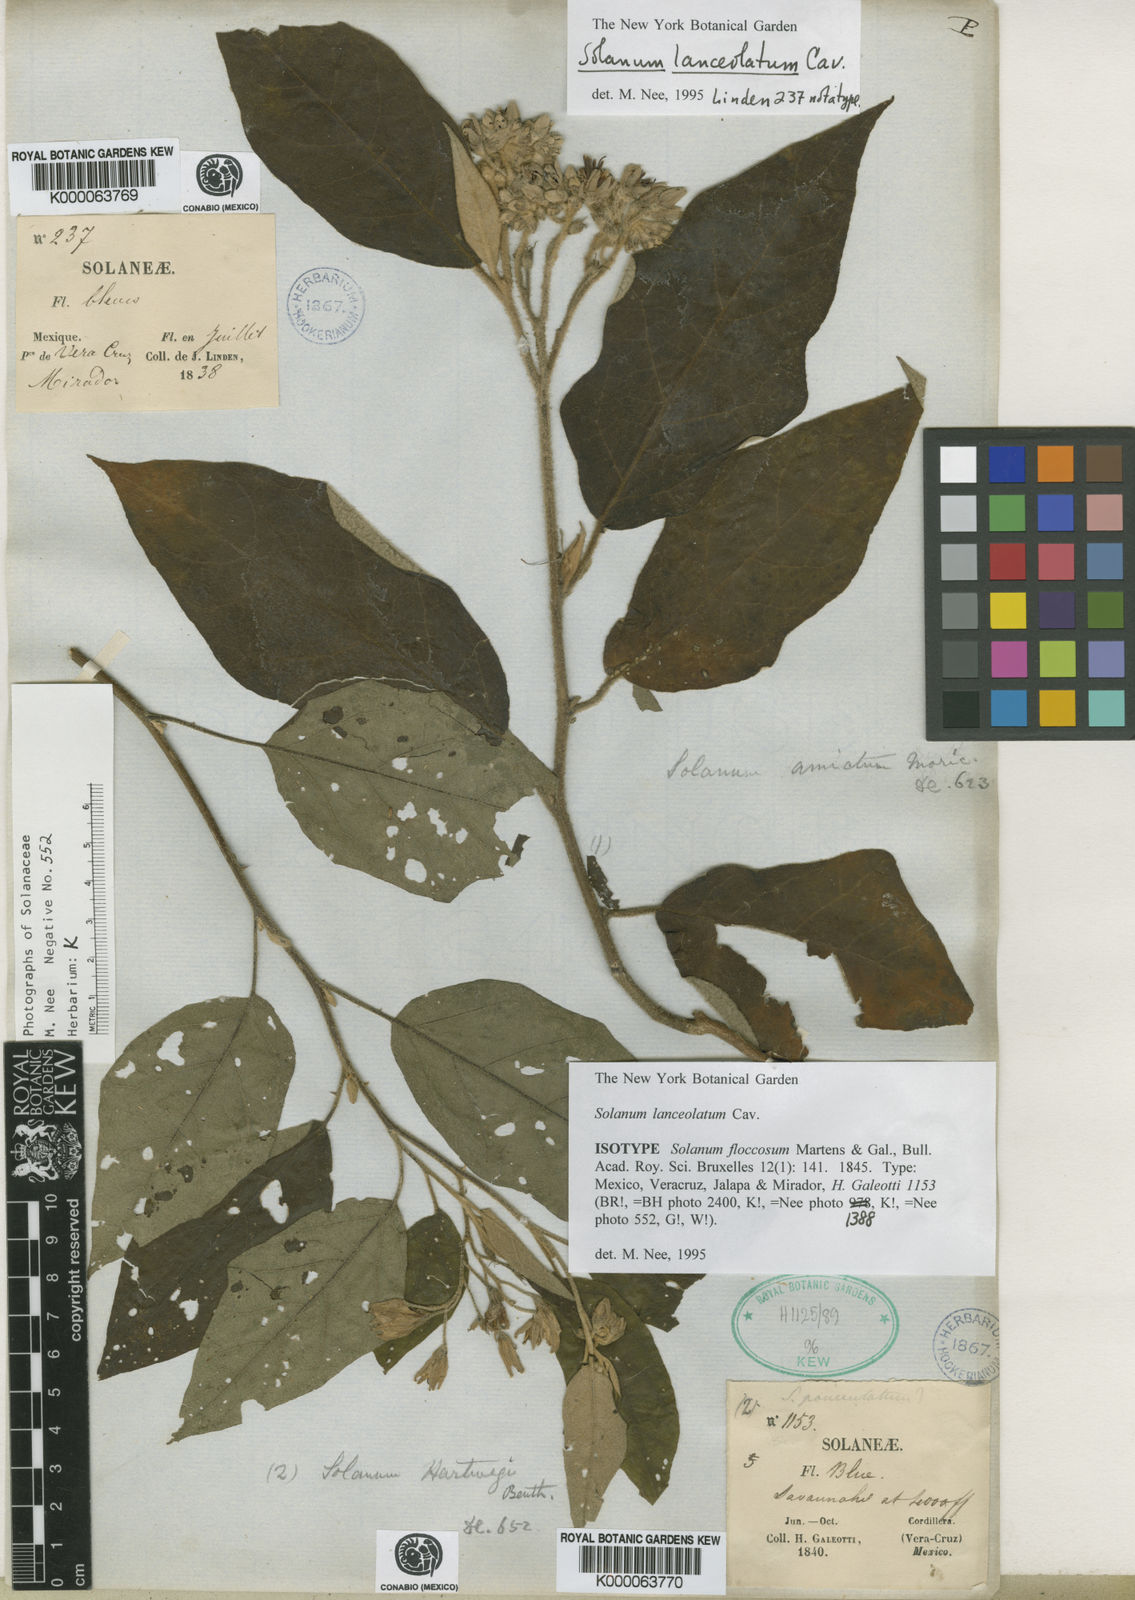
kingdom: Plantae
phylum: Tracheophyta
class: Magnoliopsida
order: Solanales
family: Solanaceae
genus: Solanum
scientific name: Solanum lanceolatum
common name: Orangeberry nightshade
